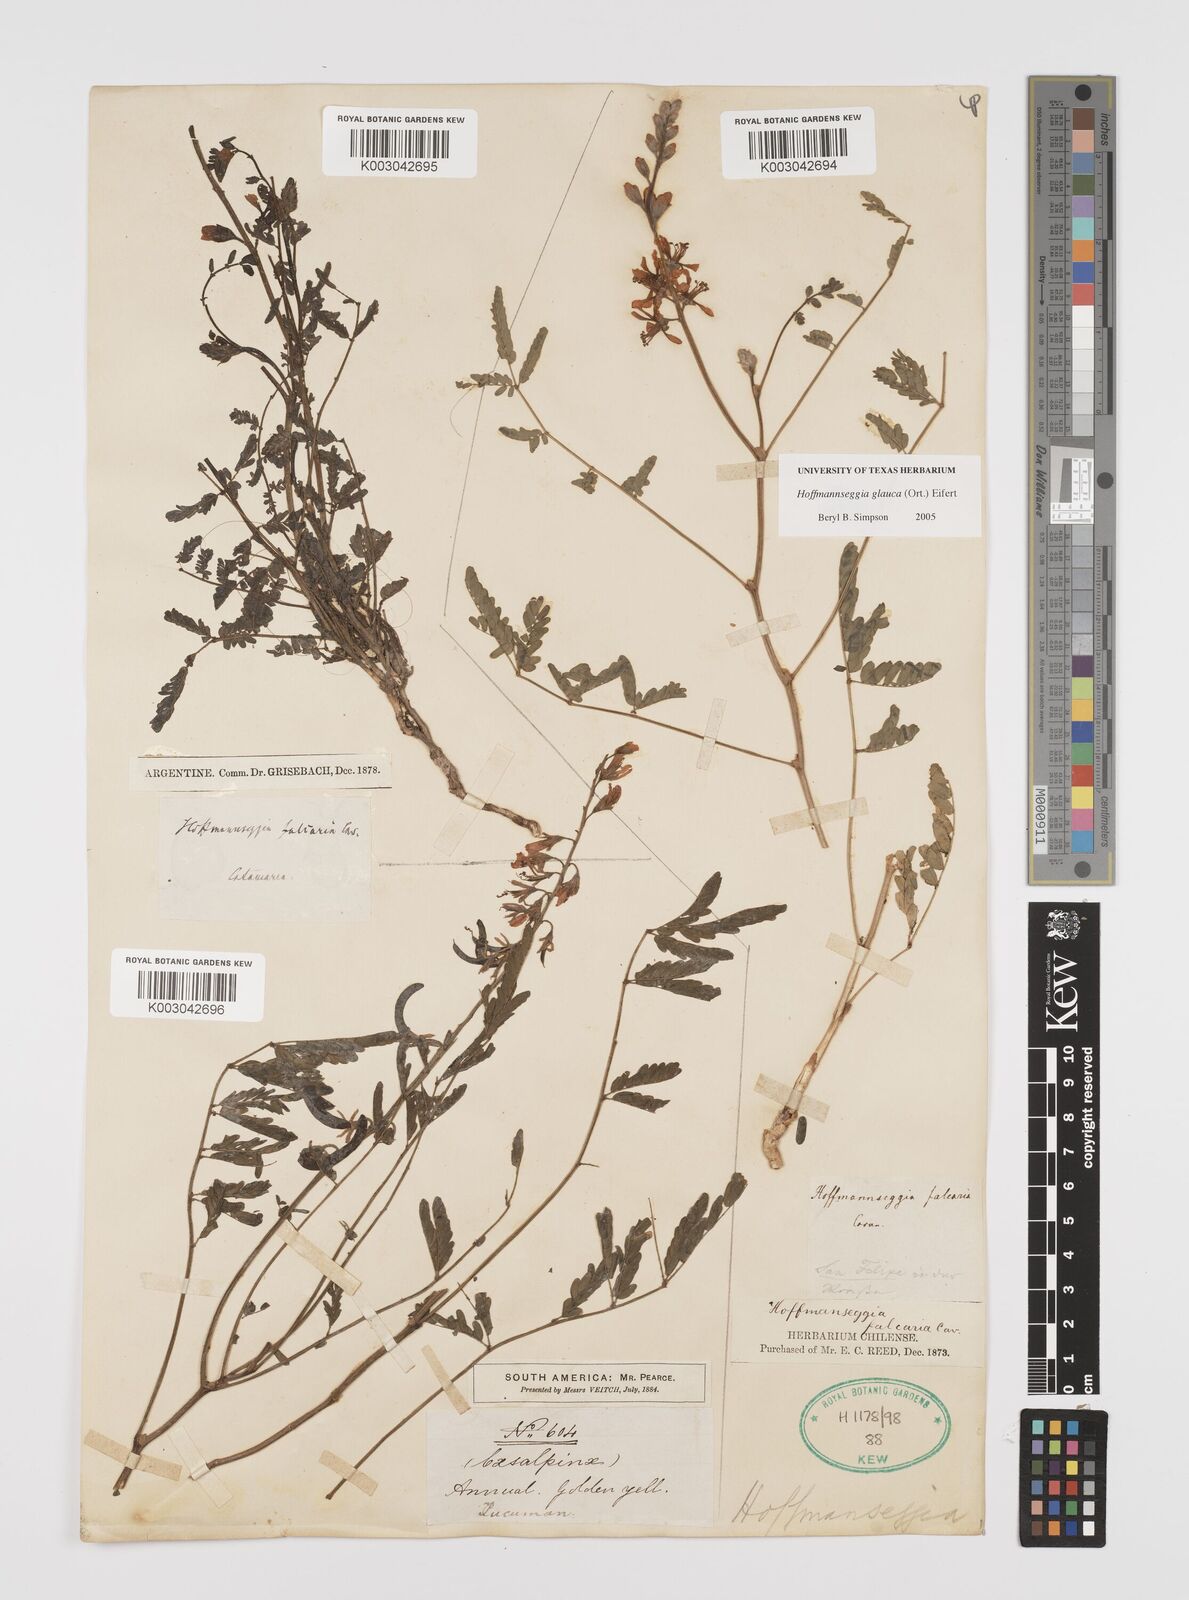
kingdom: Plantae
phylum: Tracheophyta
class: Magnoliopsida
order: Fabales
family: Fabaceae
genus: Hoffmannseggia
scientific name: Hoffmannseggia glauca
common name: Pignut
